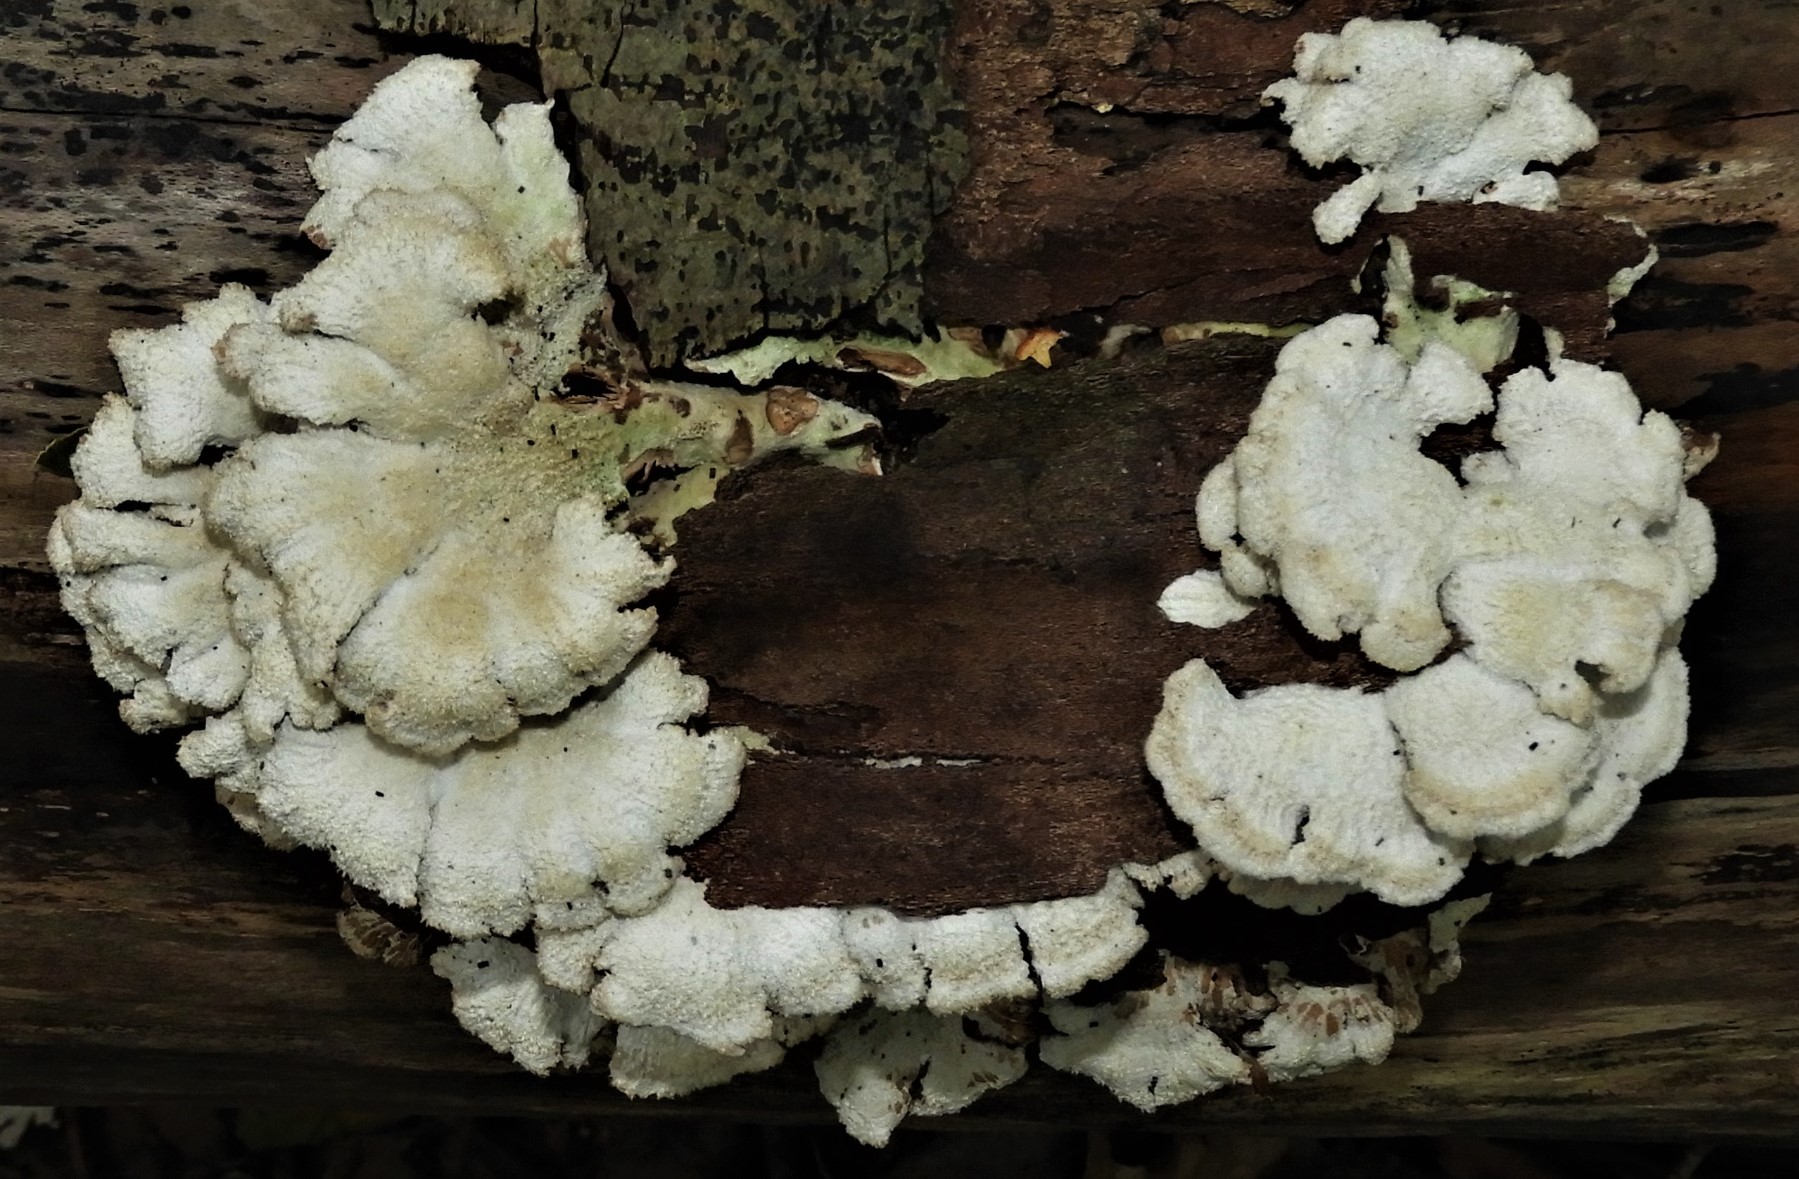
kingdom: Fungi
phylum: Basidiomycota
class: Agaricomycetes
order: Agaricales
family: Schizophyllaceae
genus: Schizophyllum
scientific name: Schizophyllum commune
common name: kløvblad
